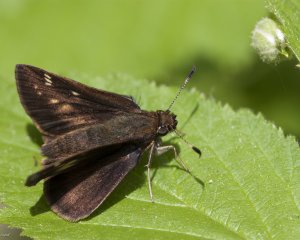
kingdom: Animalia
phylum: Arthropoda
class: Insecta
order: Lepidoptera
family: Hesperiidae
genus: Lon
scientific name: Lon hobomok
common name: Hobomok Skipper
